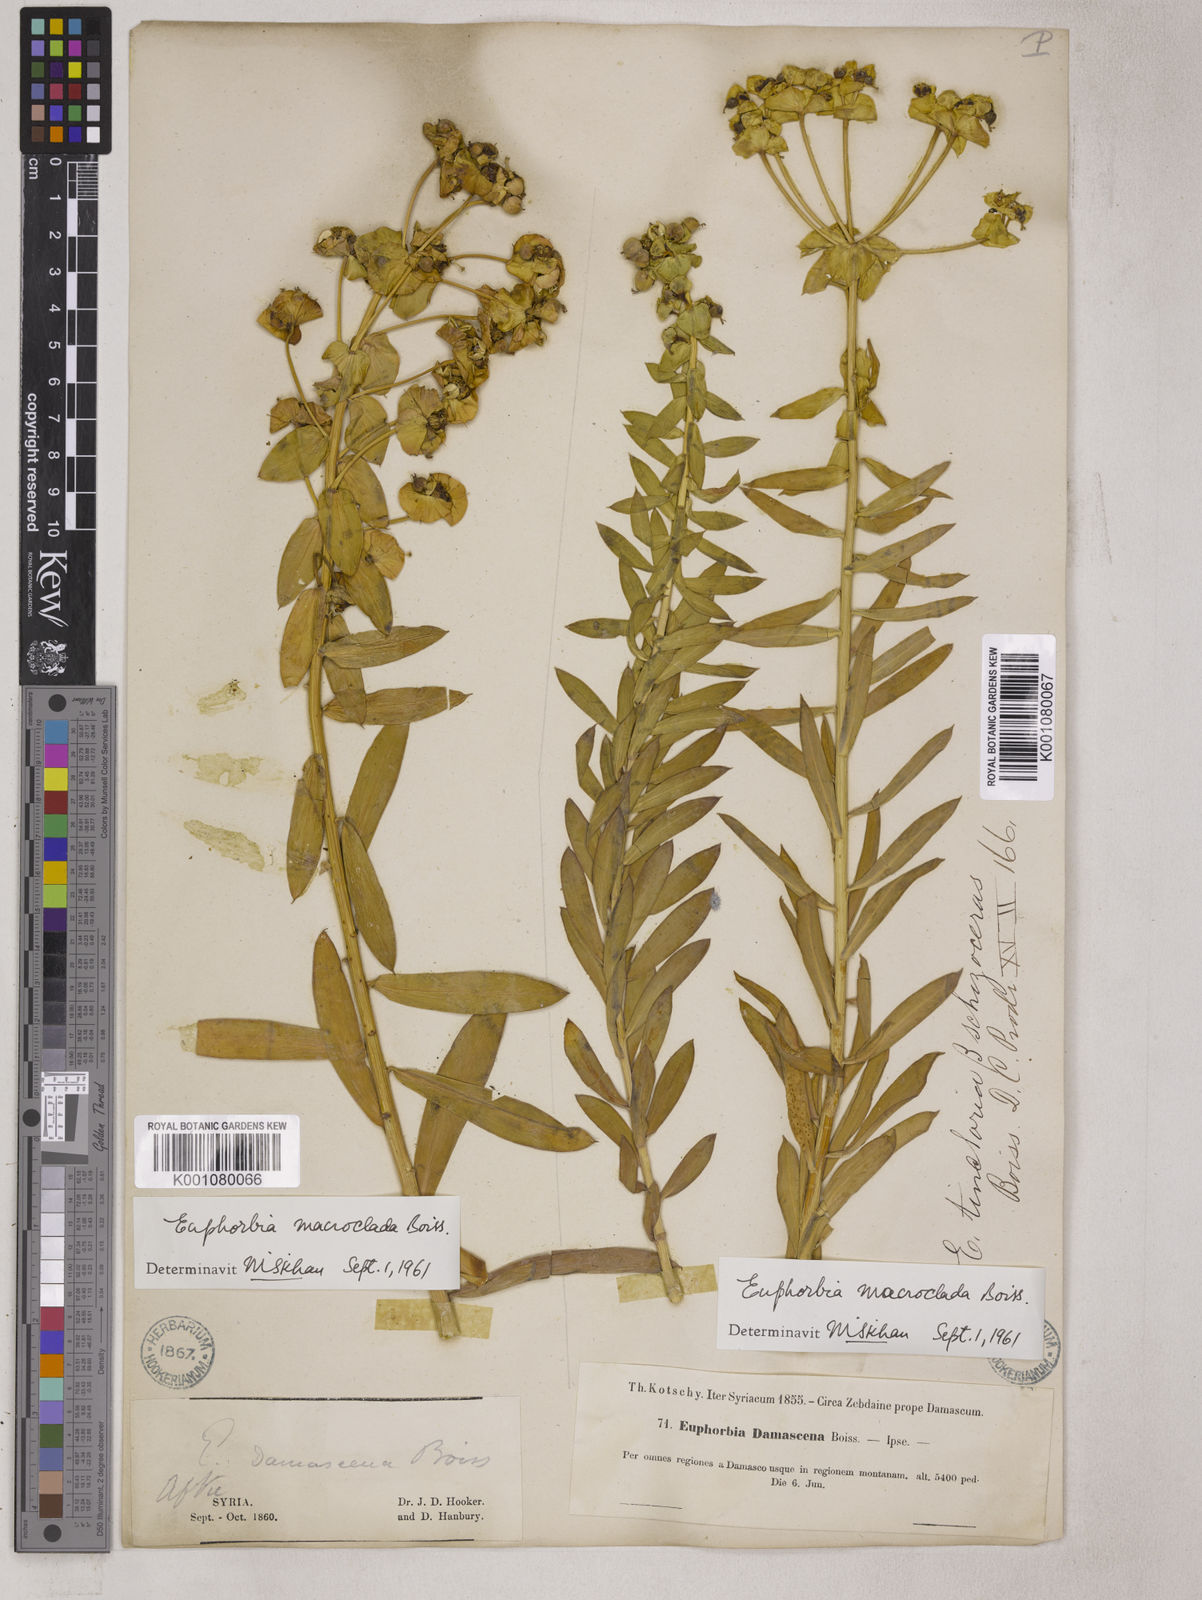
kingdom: Plantae
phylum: Tracheophyta
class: Magnoliopsida
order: Malpighiales
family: Euphorbiaceae
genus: Euphorbia
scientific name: Euphorbia macroclada
